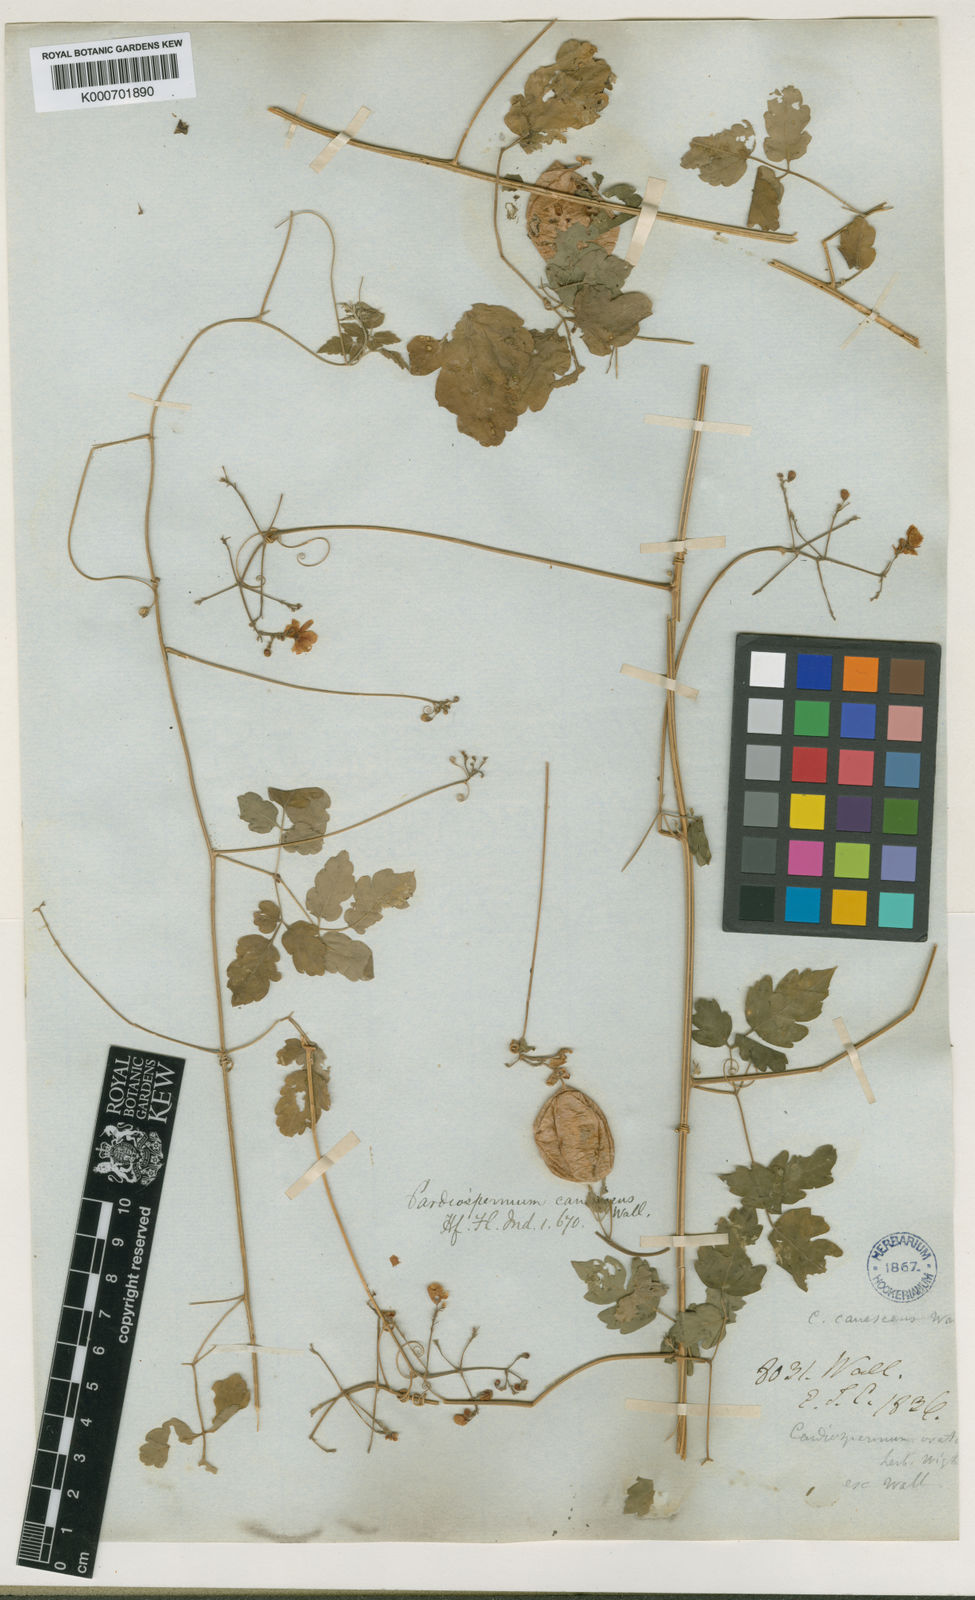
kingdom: Plantae
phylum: Tracheophyta
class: Magnoliopsida
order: Sapindales
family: Sapindaceae
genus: Cardiospermum
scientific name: Cardiospermum corindum
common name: Faux persil
